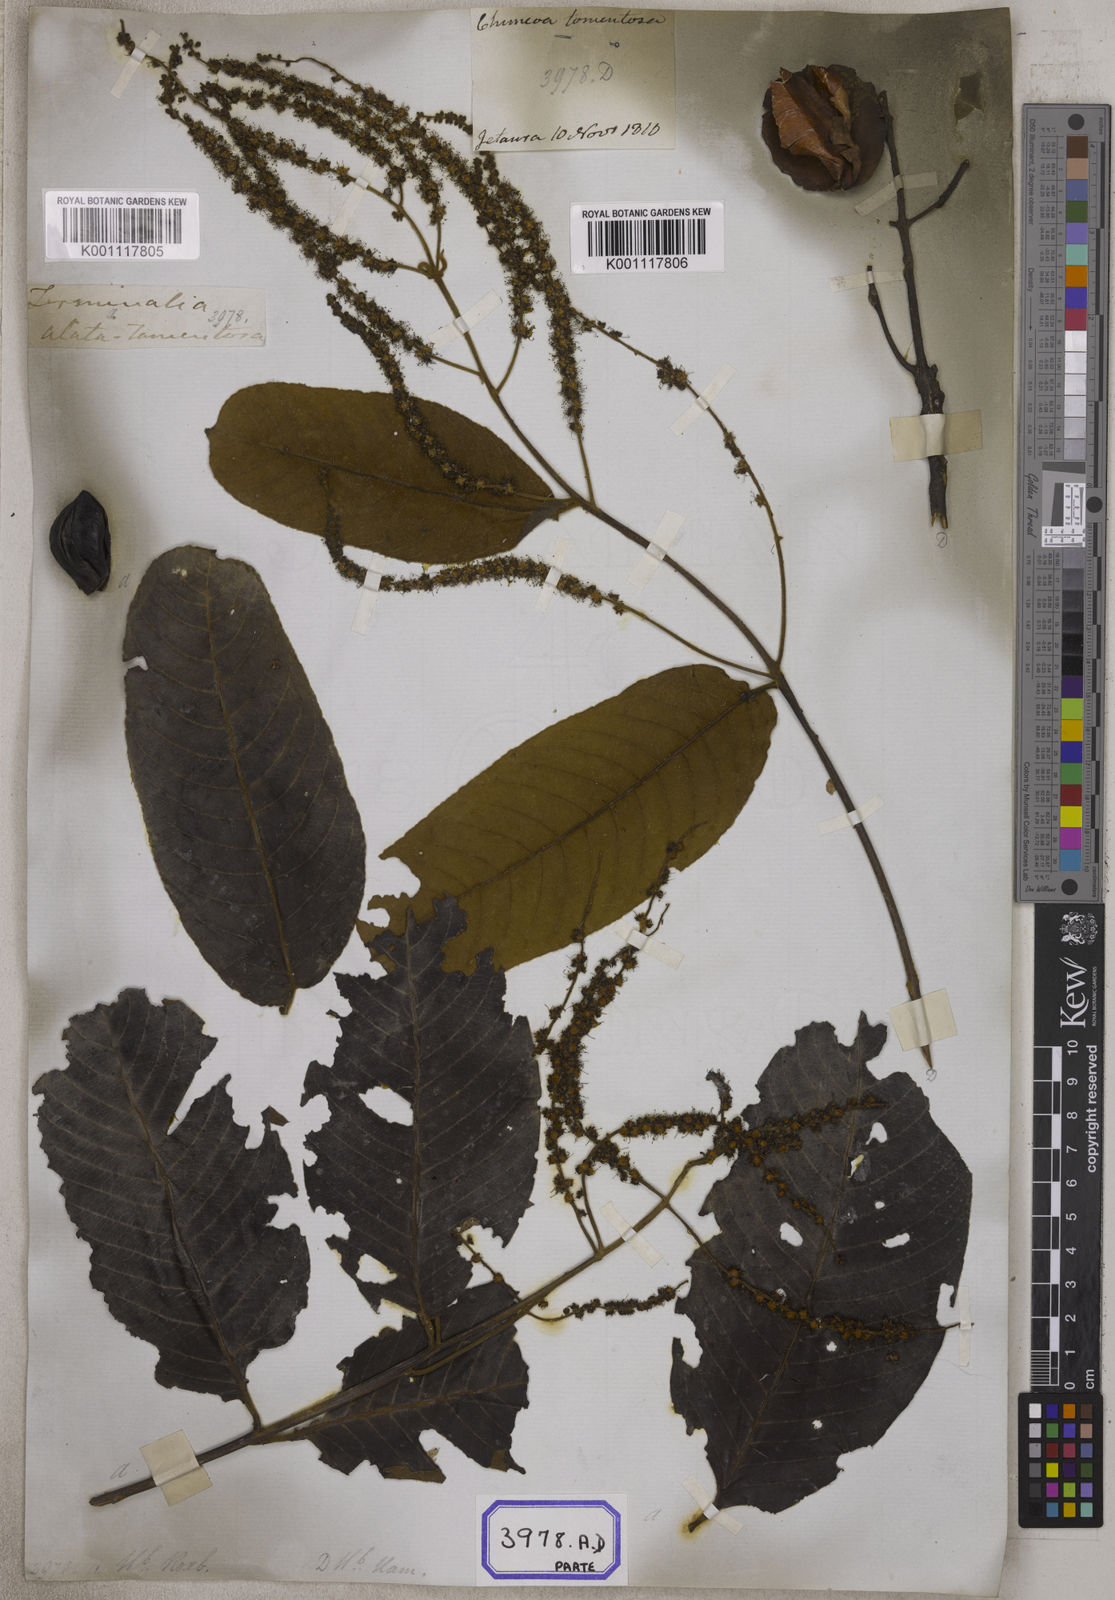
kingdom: Plantae
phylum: Tracheophyta
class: Magnoliopsida
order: Myrtales
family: Combretaceae
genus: Terminalia
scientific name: Terminalia
